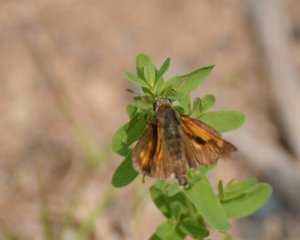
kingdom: Animalia
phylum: Arthropoda
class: Insecta
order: Lepidoptera
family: Hesperiidae
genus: Polites
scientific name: Polites
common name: Long Dash Skipper
